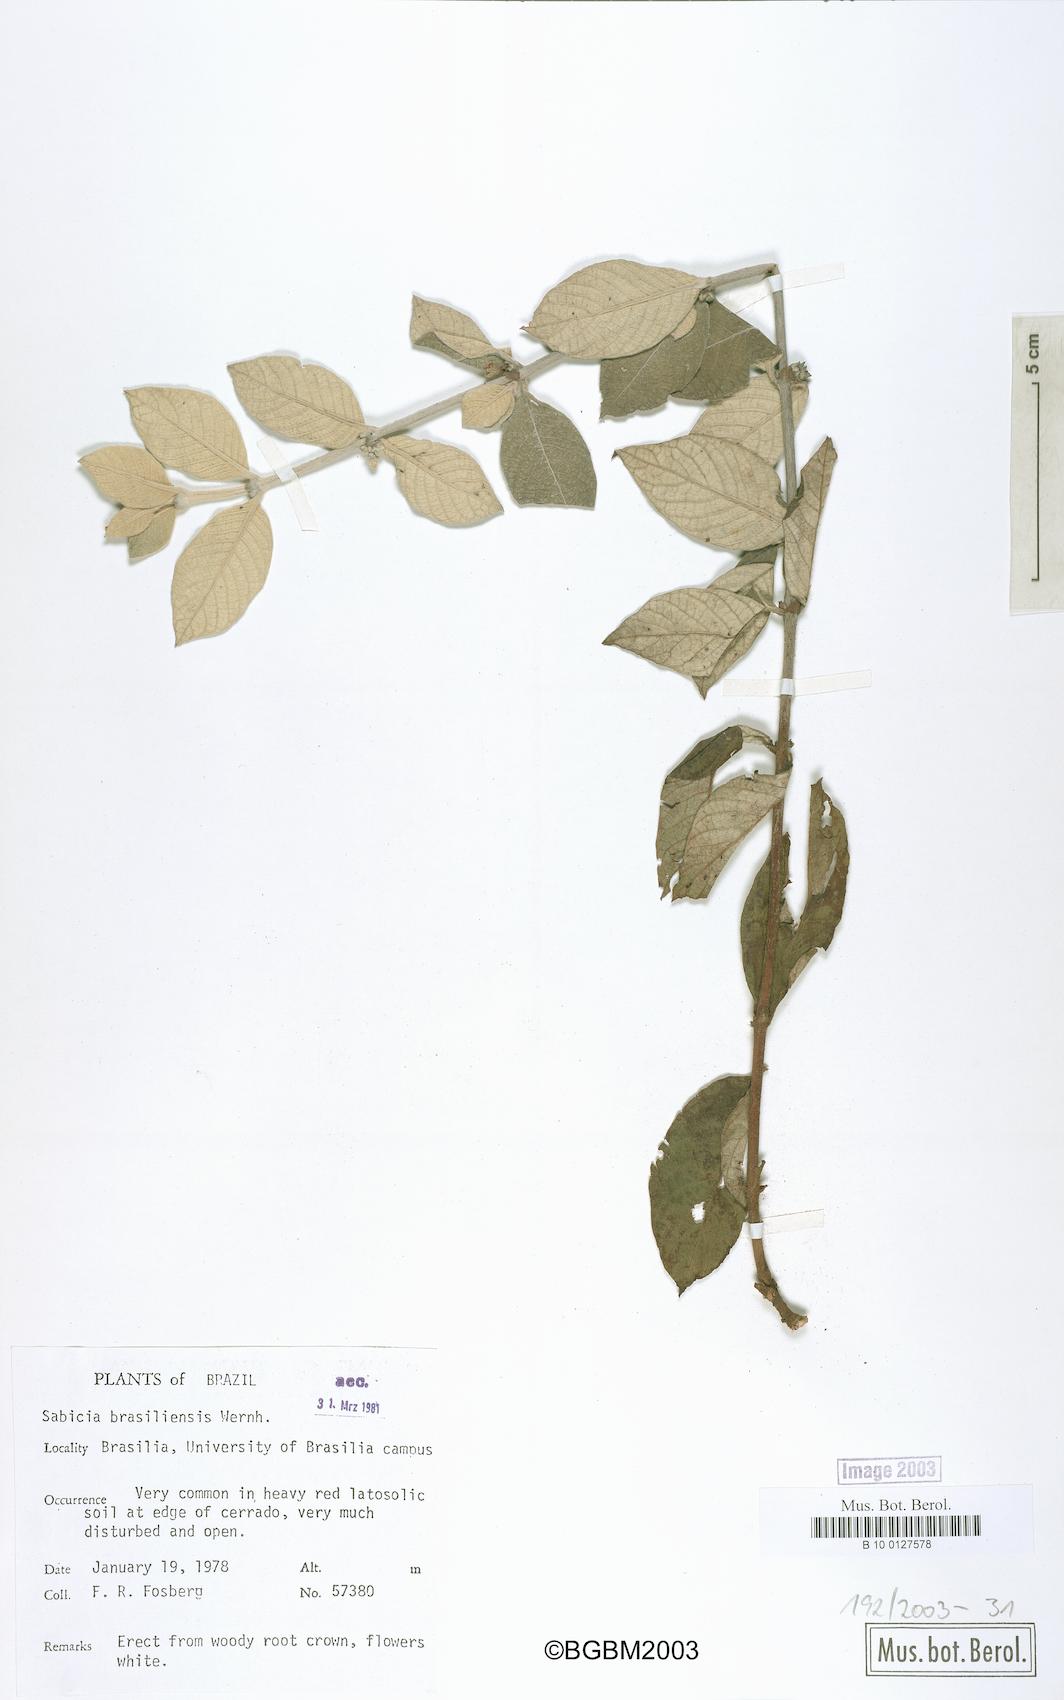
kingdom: Plantae
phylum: Tracheophyta
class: Magnoliopsida
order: Gentianales
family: Rubiaceae
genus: Sabicea
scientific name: Sabicea brasiliensis
